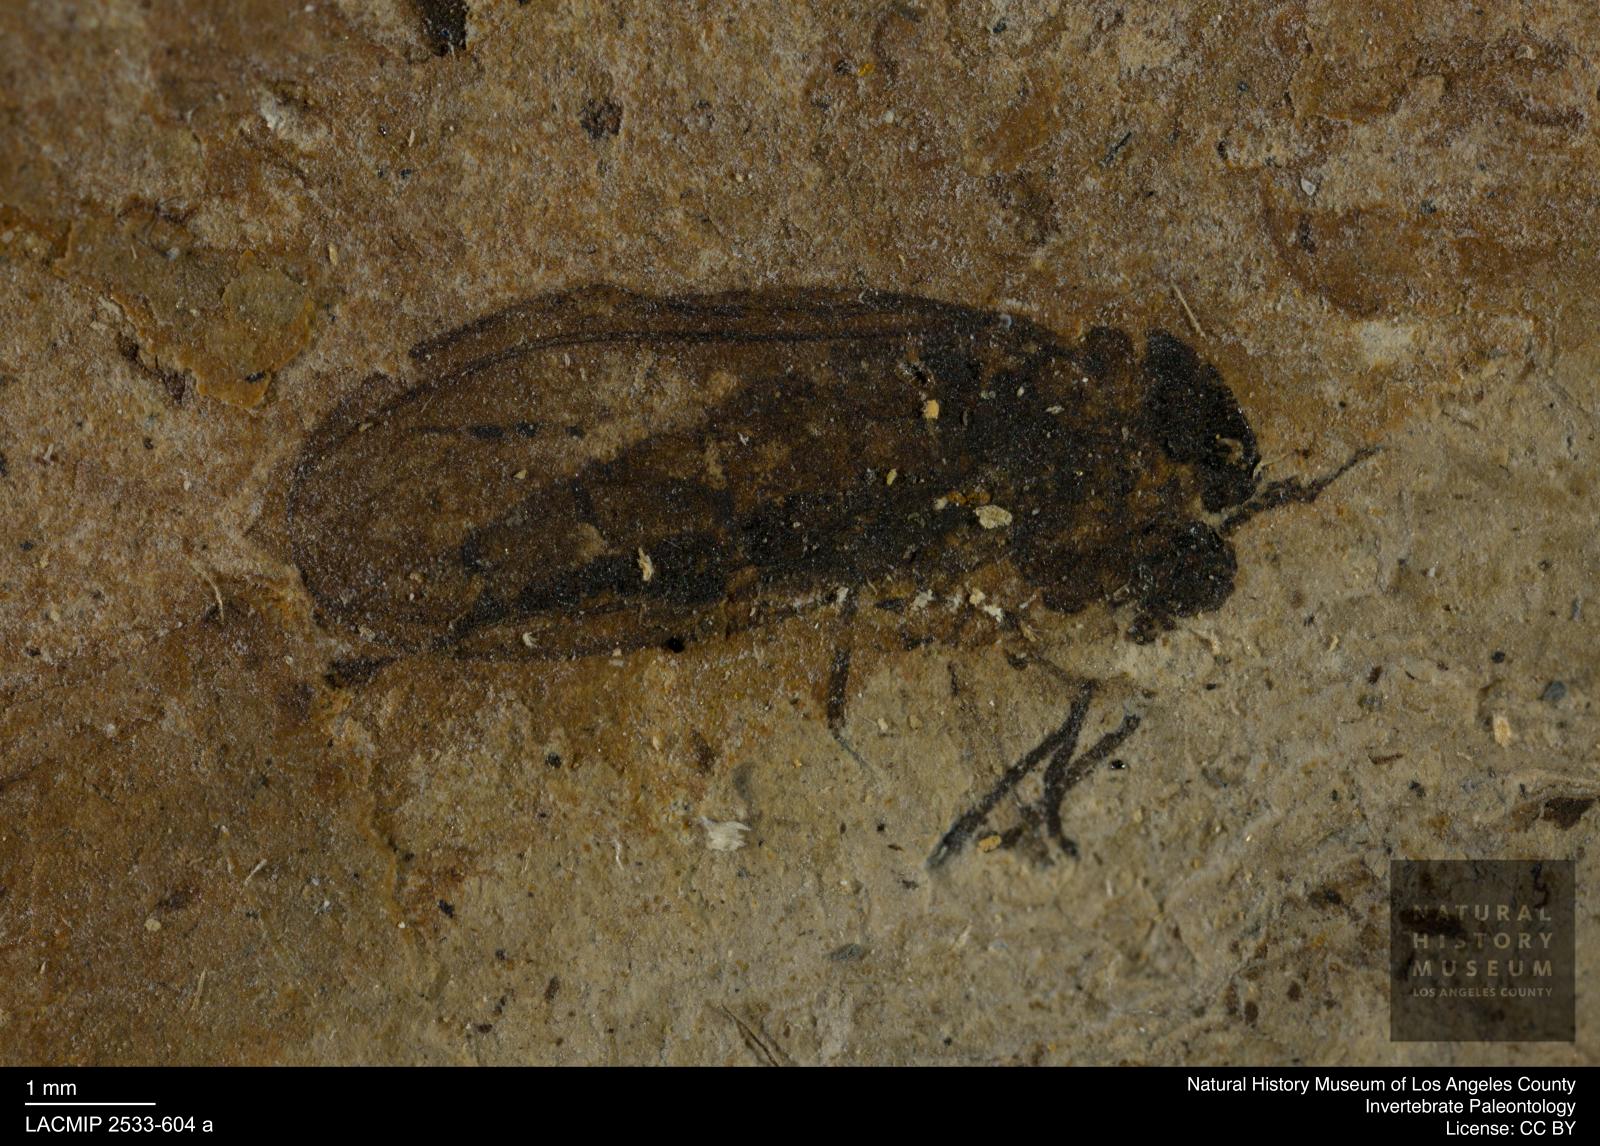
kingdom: Animalia
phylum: Arthropoda
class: Insecta
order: Diptera
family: Sciaridae
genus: Sciara
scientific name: Sciara pelidua
